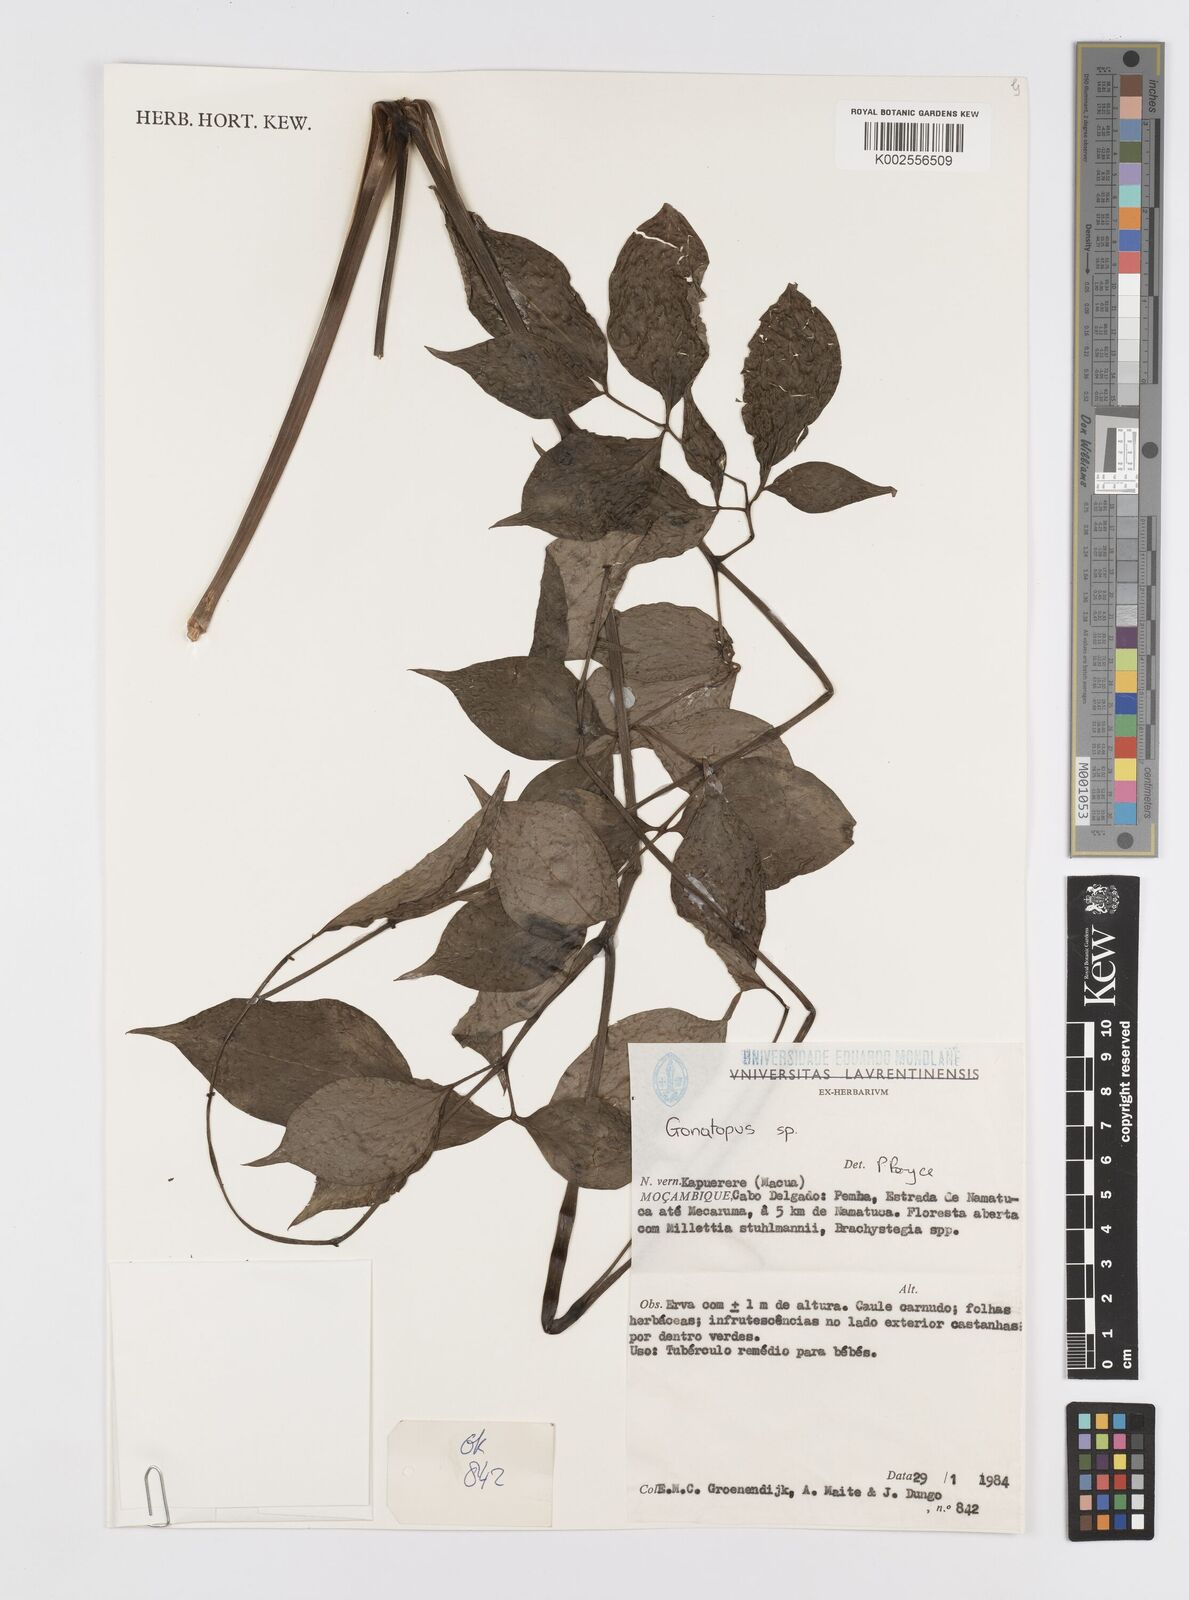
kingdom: Plantae
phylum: Tracheophyta
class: Liliopsida
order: Alismatales
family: Araceae
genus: Gonatopus
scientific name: Gonatopus
